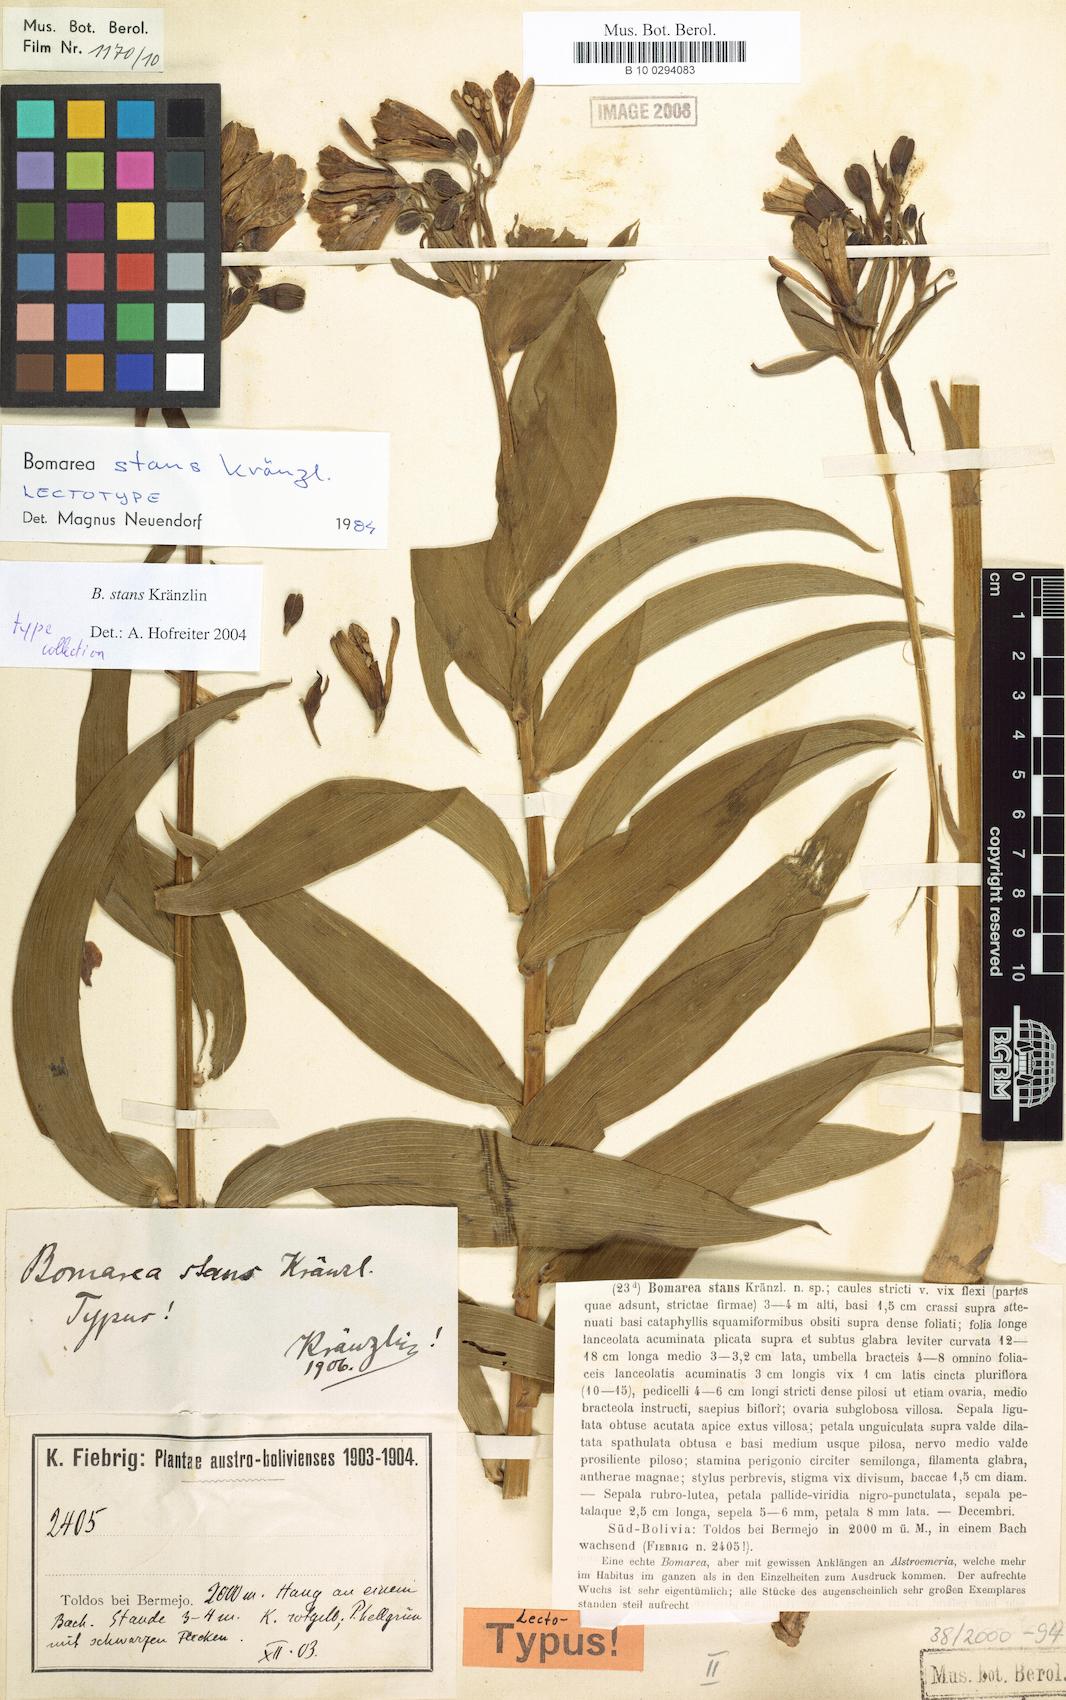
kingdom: Plantae
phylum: Tracheophyta
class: Liliopsida
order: Liliales
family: Alstroemeriaceae
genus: Bomarea
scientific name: Bomarea stans
